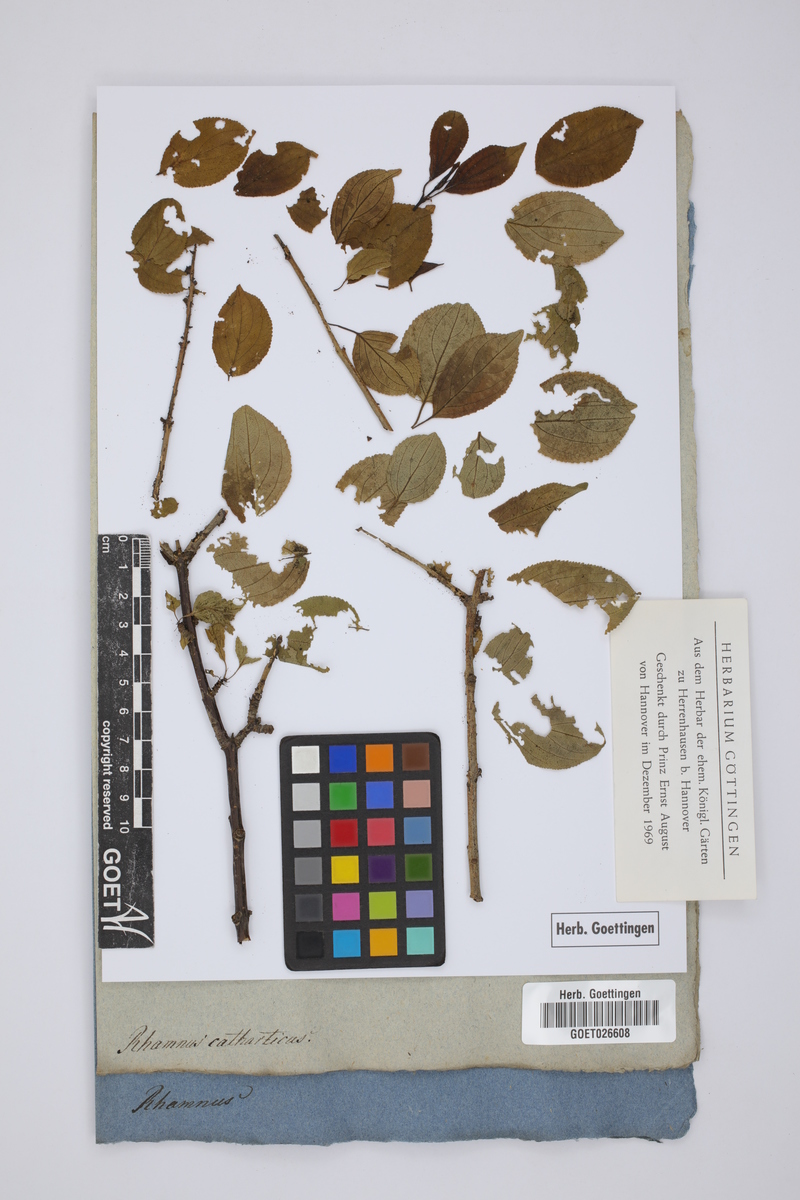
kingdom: Plantae
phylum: Tracheophyta
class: Magnoliopsida
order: Rosales
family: Rhamnaceae
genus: Rhamnus
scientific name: Rhamnus cathartica
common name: Common buckthorn
